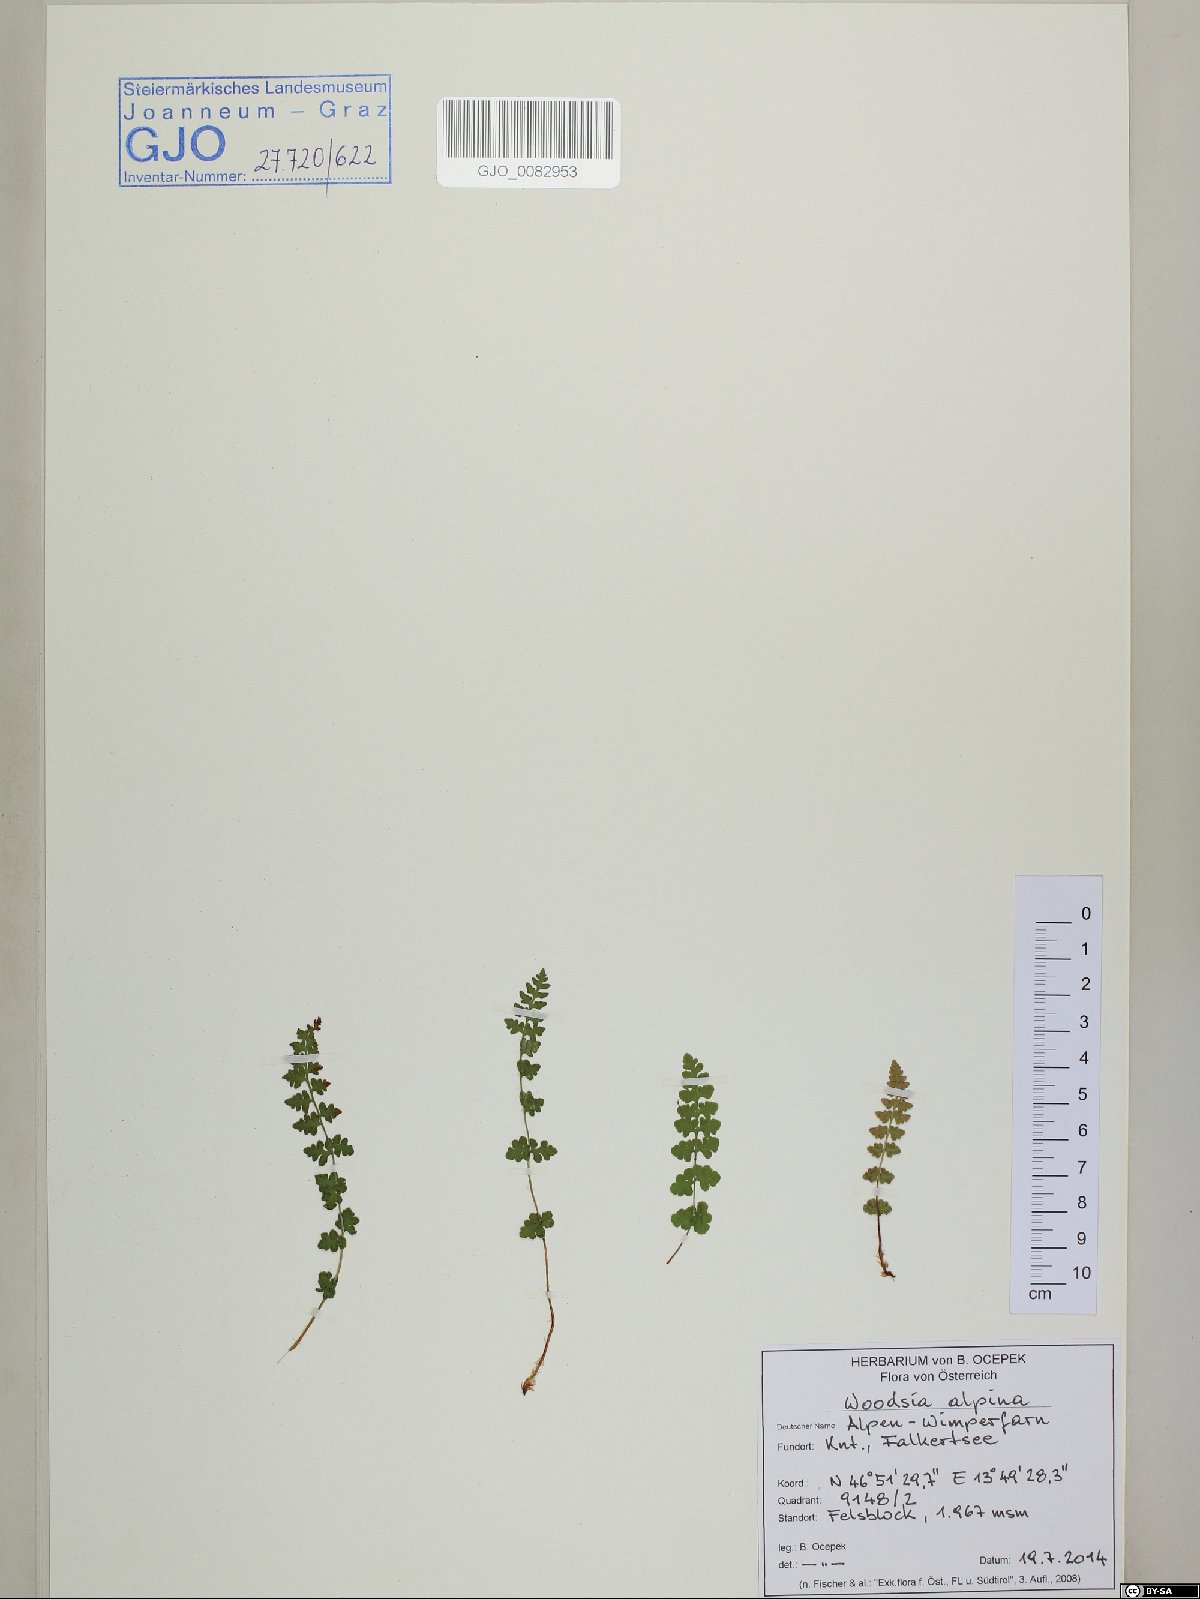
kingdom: Plantae
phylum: Tracheophyta
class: Polypodiopsida
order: Polypodiales
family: Woodsiaceae
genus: Woodsia
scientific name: Woodsia alpina
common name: Alpine woodsia
